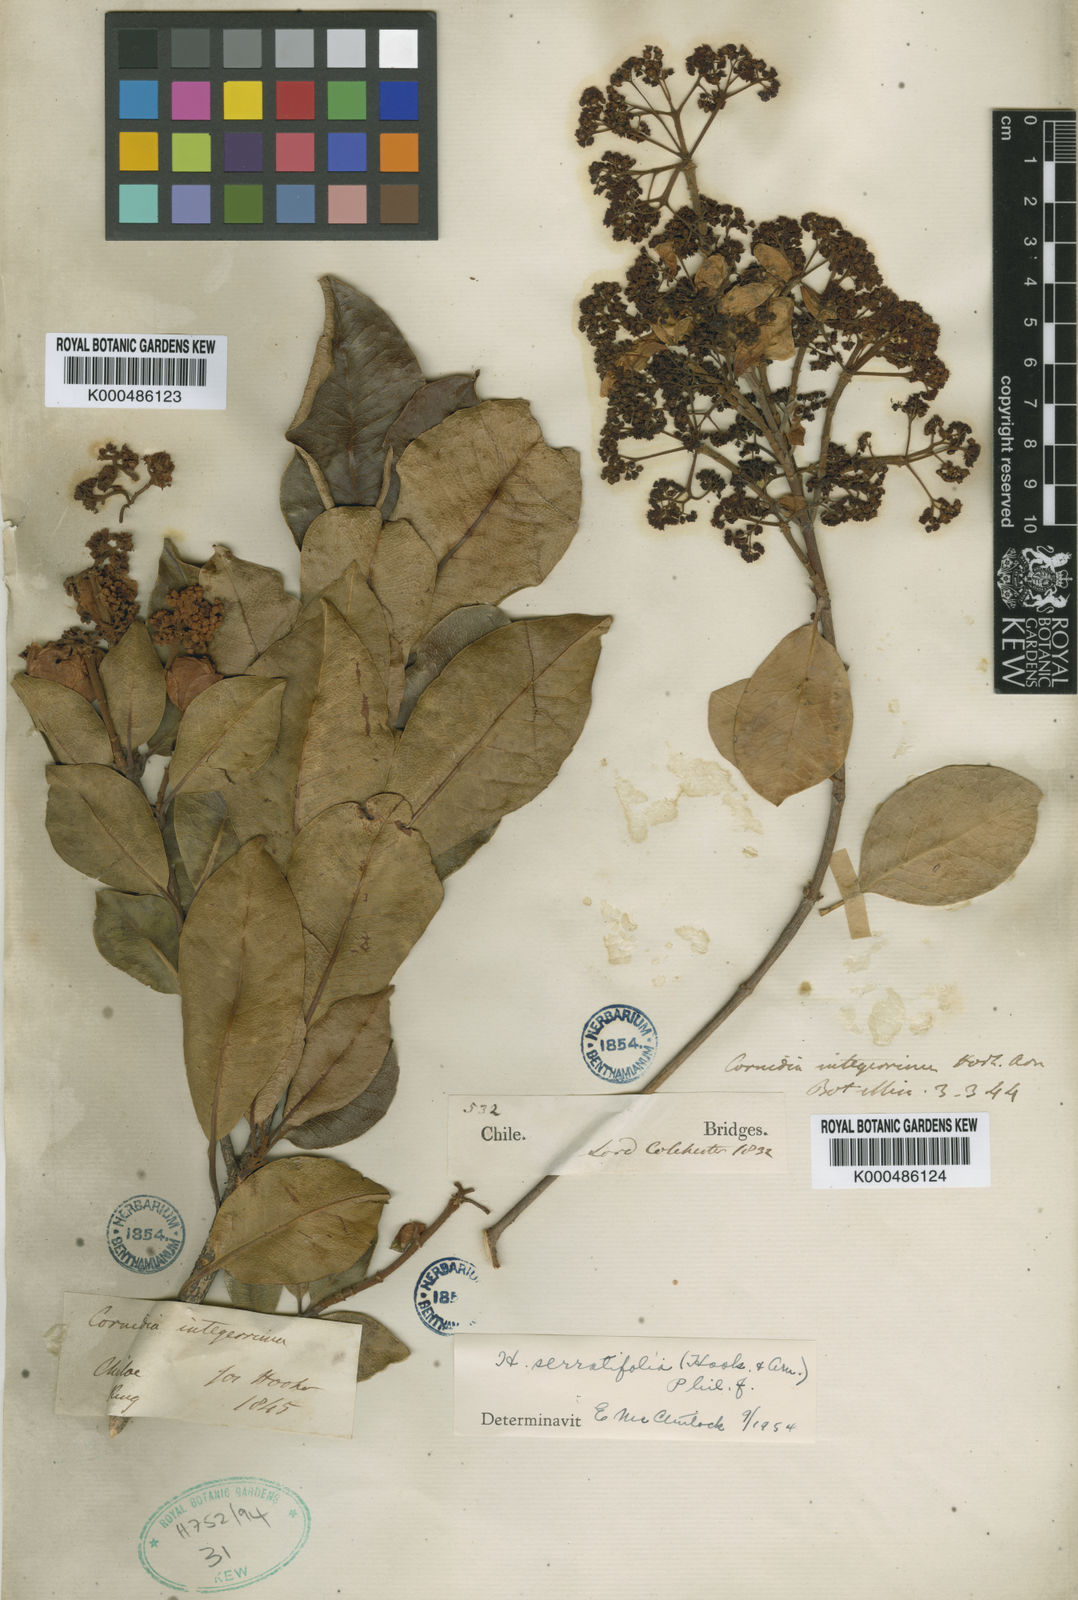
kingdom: Plantae
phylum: Tracheophyta
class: Magnoliopsida
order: Cornales
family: Hydrangeaceae
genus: Hydrangea
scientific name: Hydrangea serratifolia
